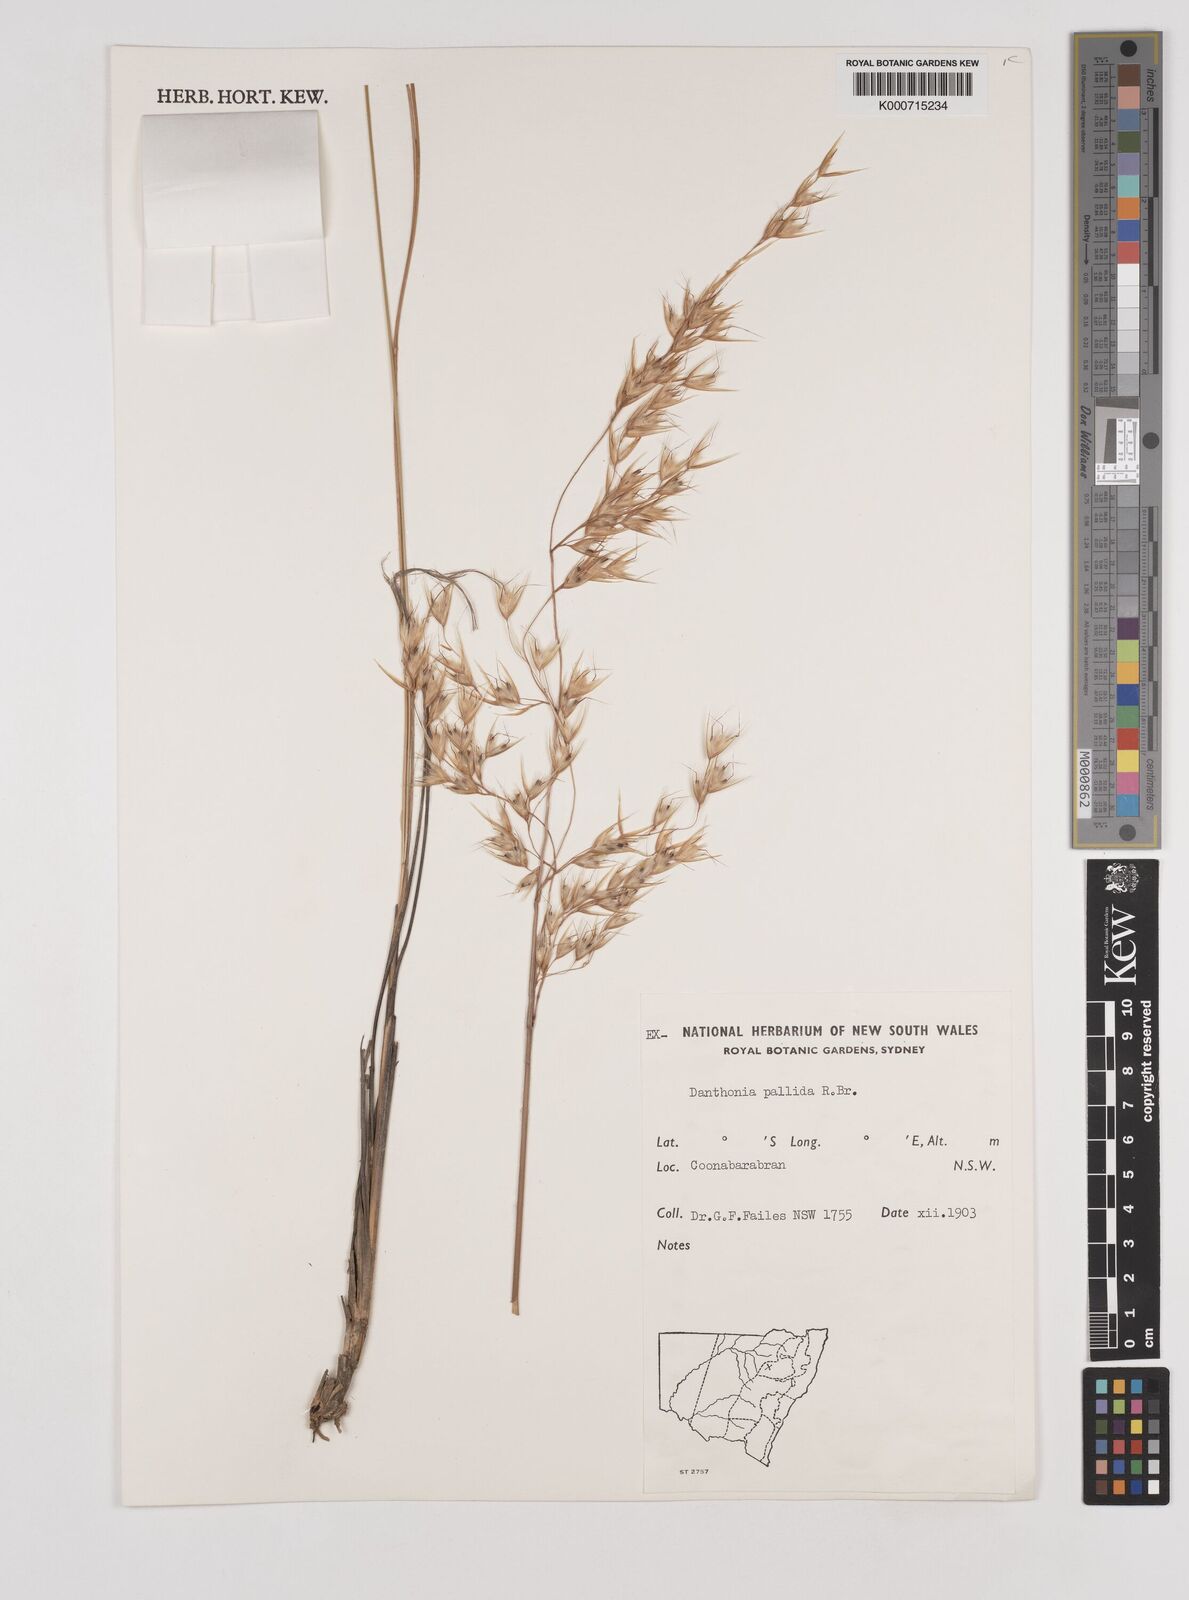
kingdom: Plantae
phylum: Tracheophyta
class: Liliopsida
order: Poales
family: Poaceae
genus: Rytidosperma
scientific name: Rytidosperma
